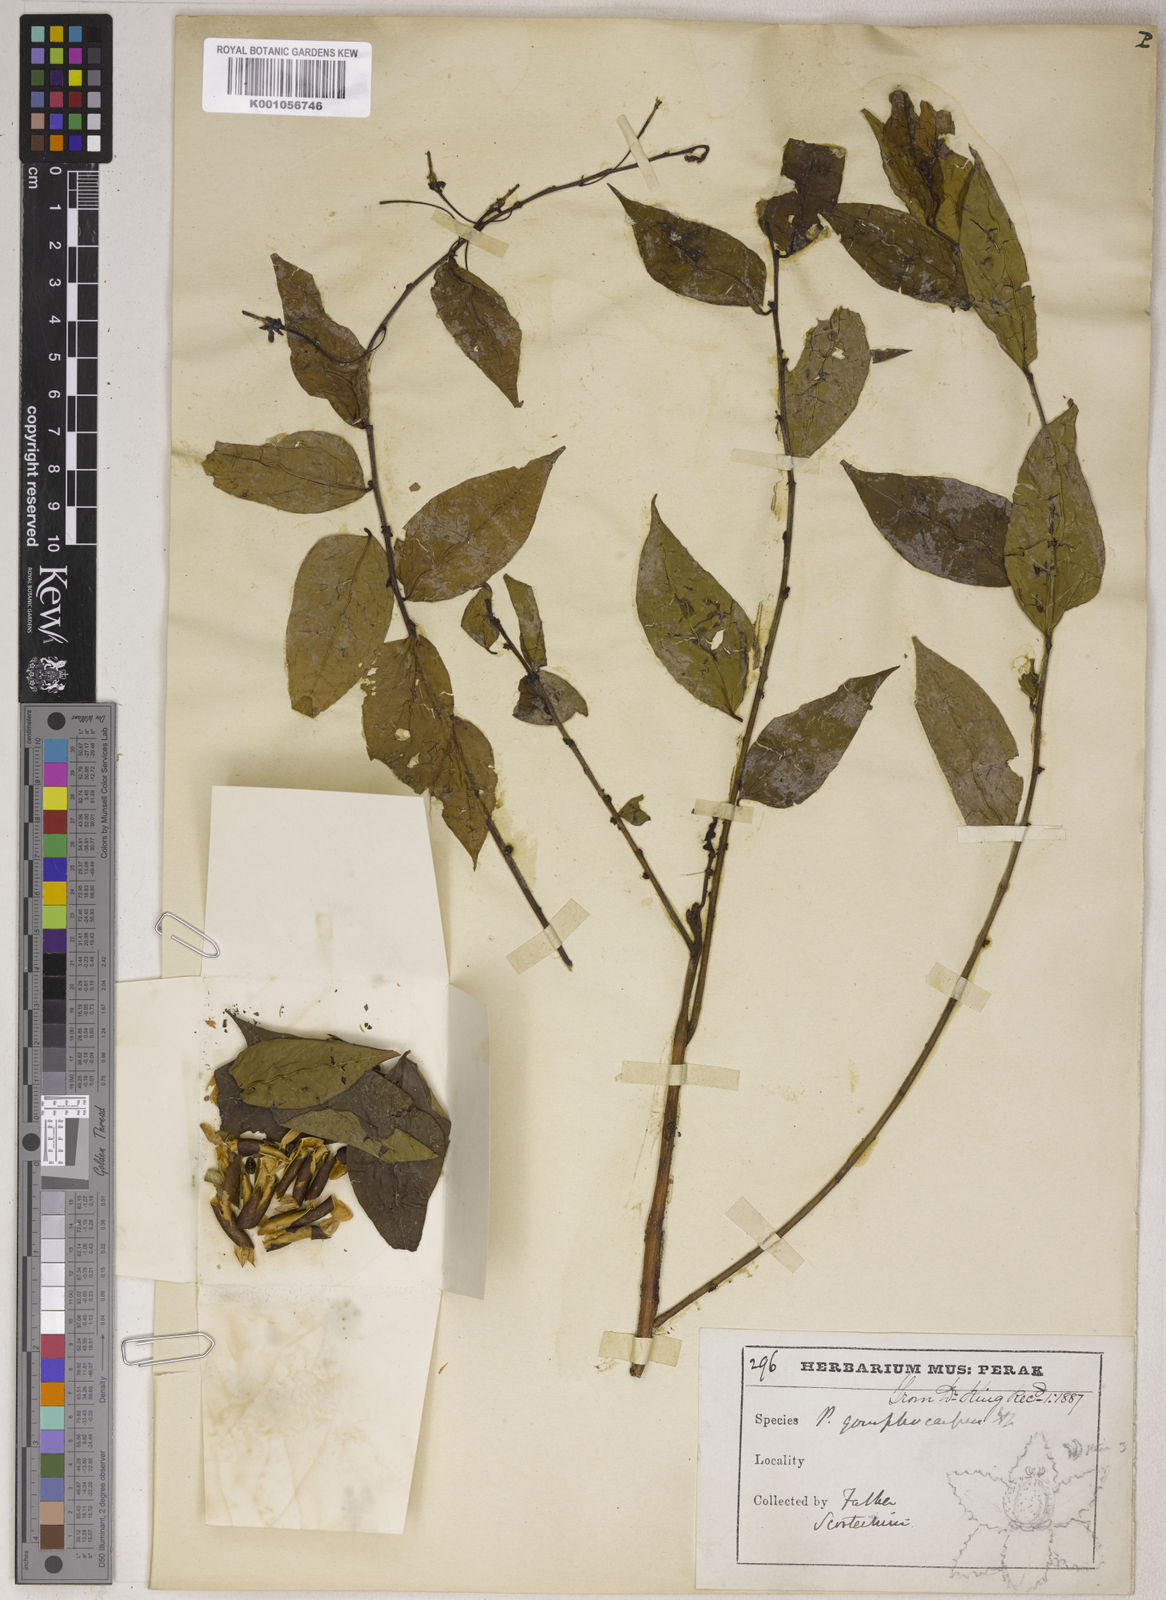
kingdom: Plantae
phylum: Tracheophyta
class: Magnoliopsida
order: Malpighiales
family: Phyllanthaceae
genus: Phyllanthus
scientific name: Phyllanthus gomphocarpus
